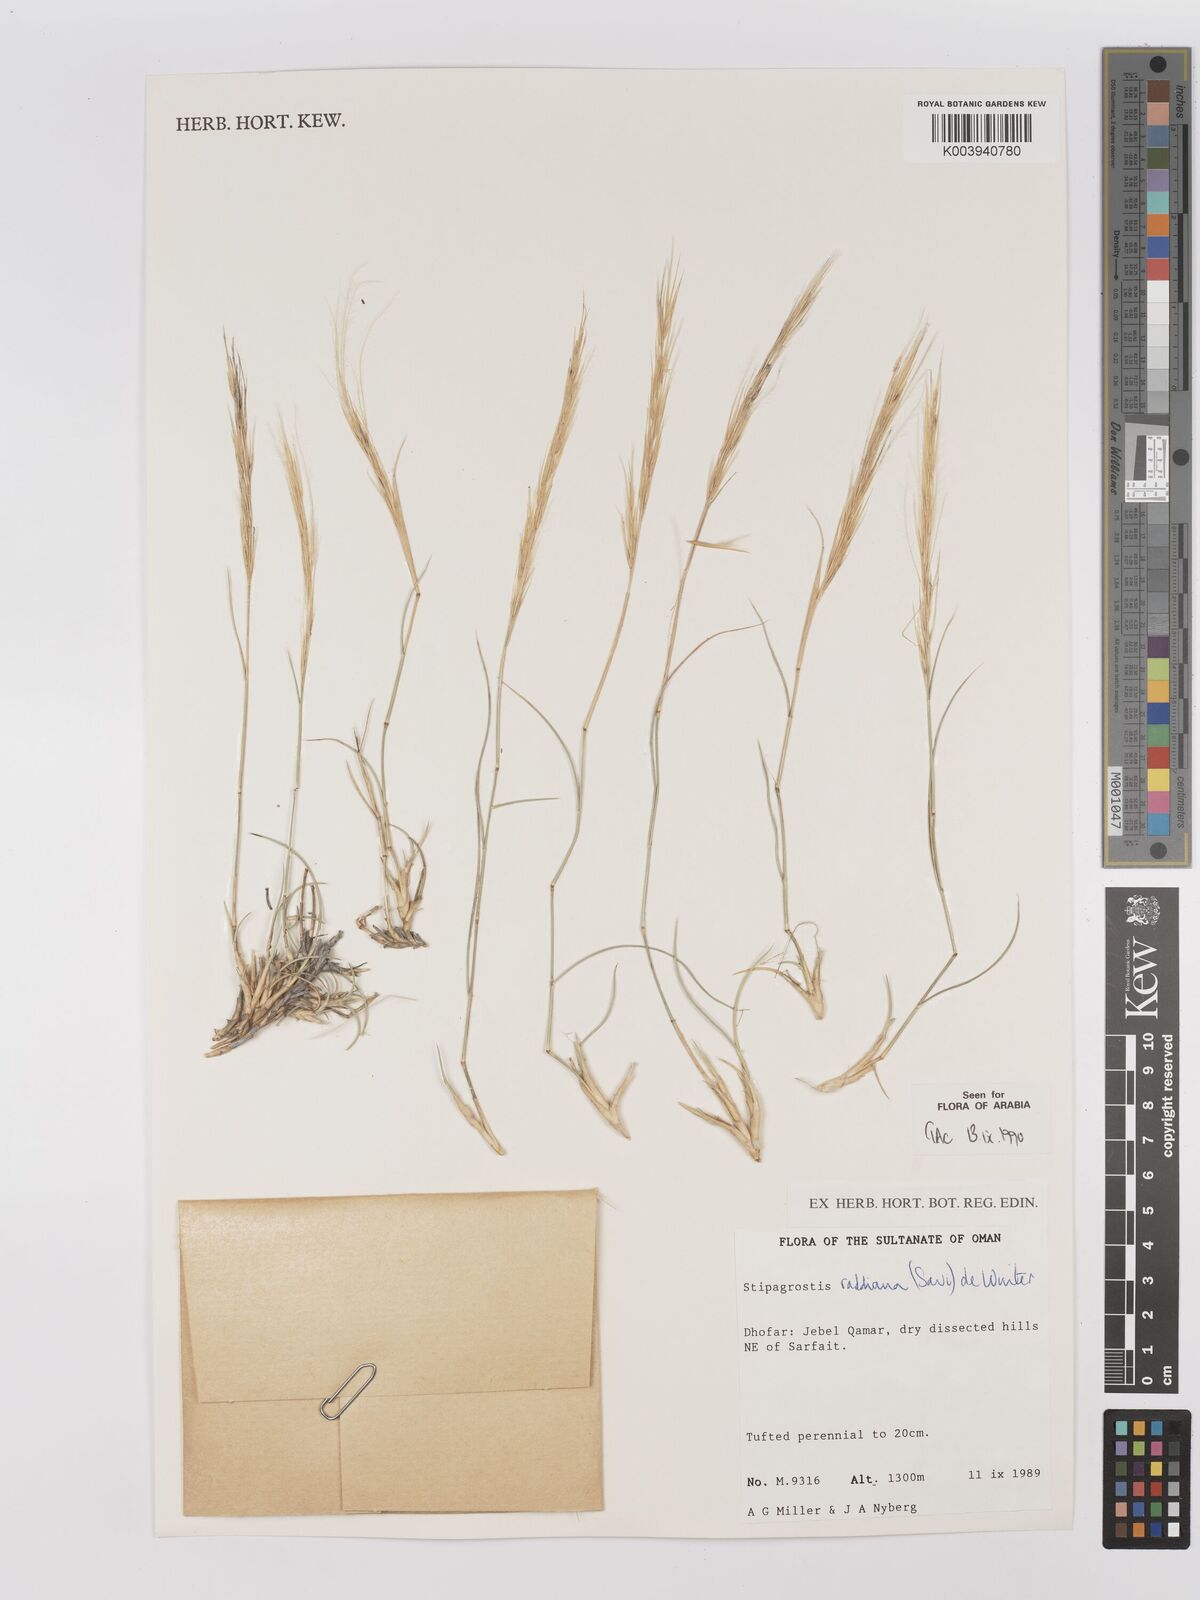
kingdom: Plantae
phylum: Tracheophyta
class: Liliopsida
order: Poales
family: Poaceae
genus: Stipagrostis
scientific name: Stipagrostis raddiana
